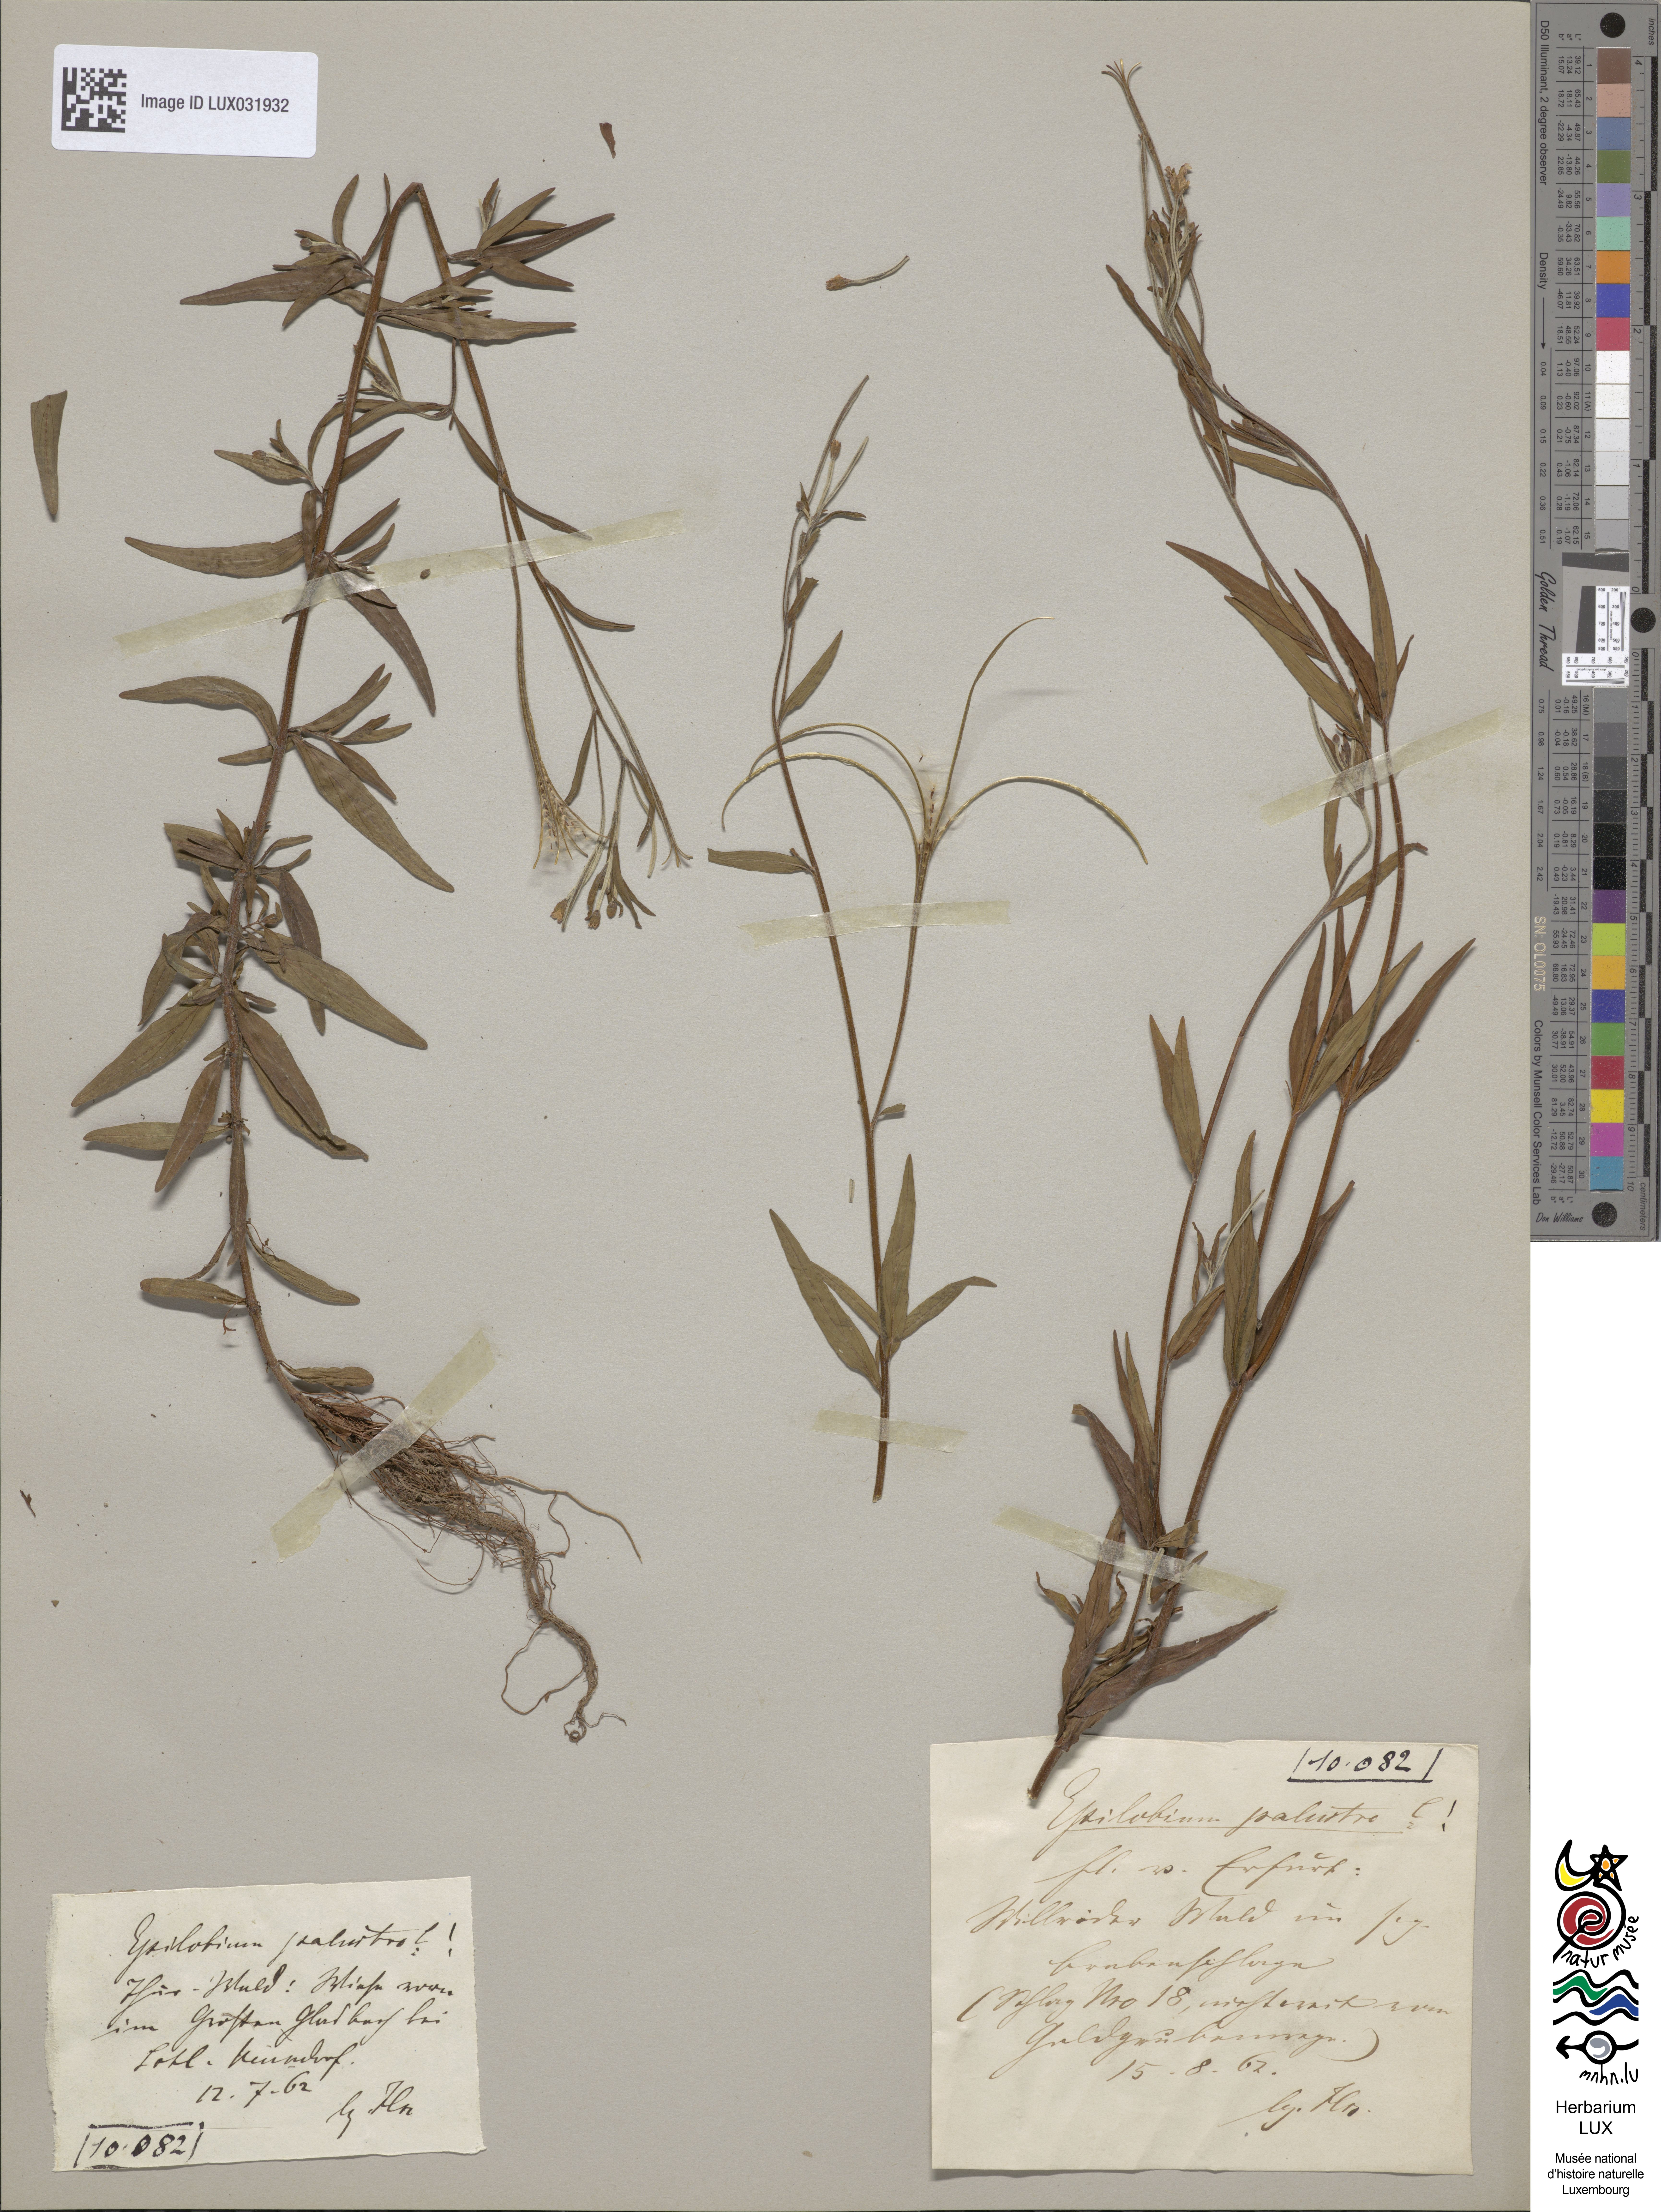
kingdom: Plantae
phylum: Tracheophyta
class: Magnoliopsida
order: Myrtales
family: Onagraceae
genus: Epilobium
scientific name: Epilobium palustre
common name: Marsh willowherb
